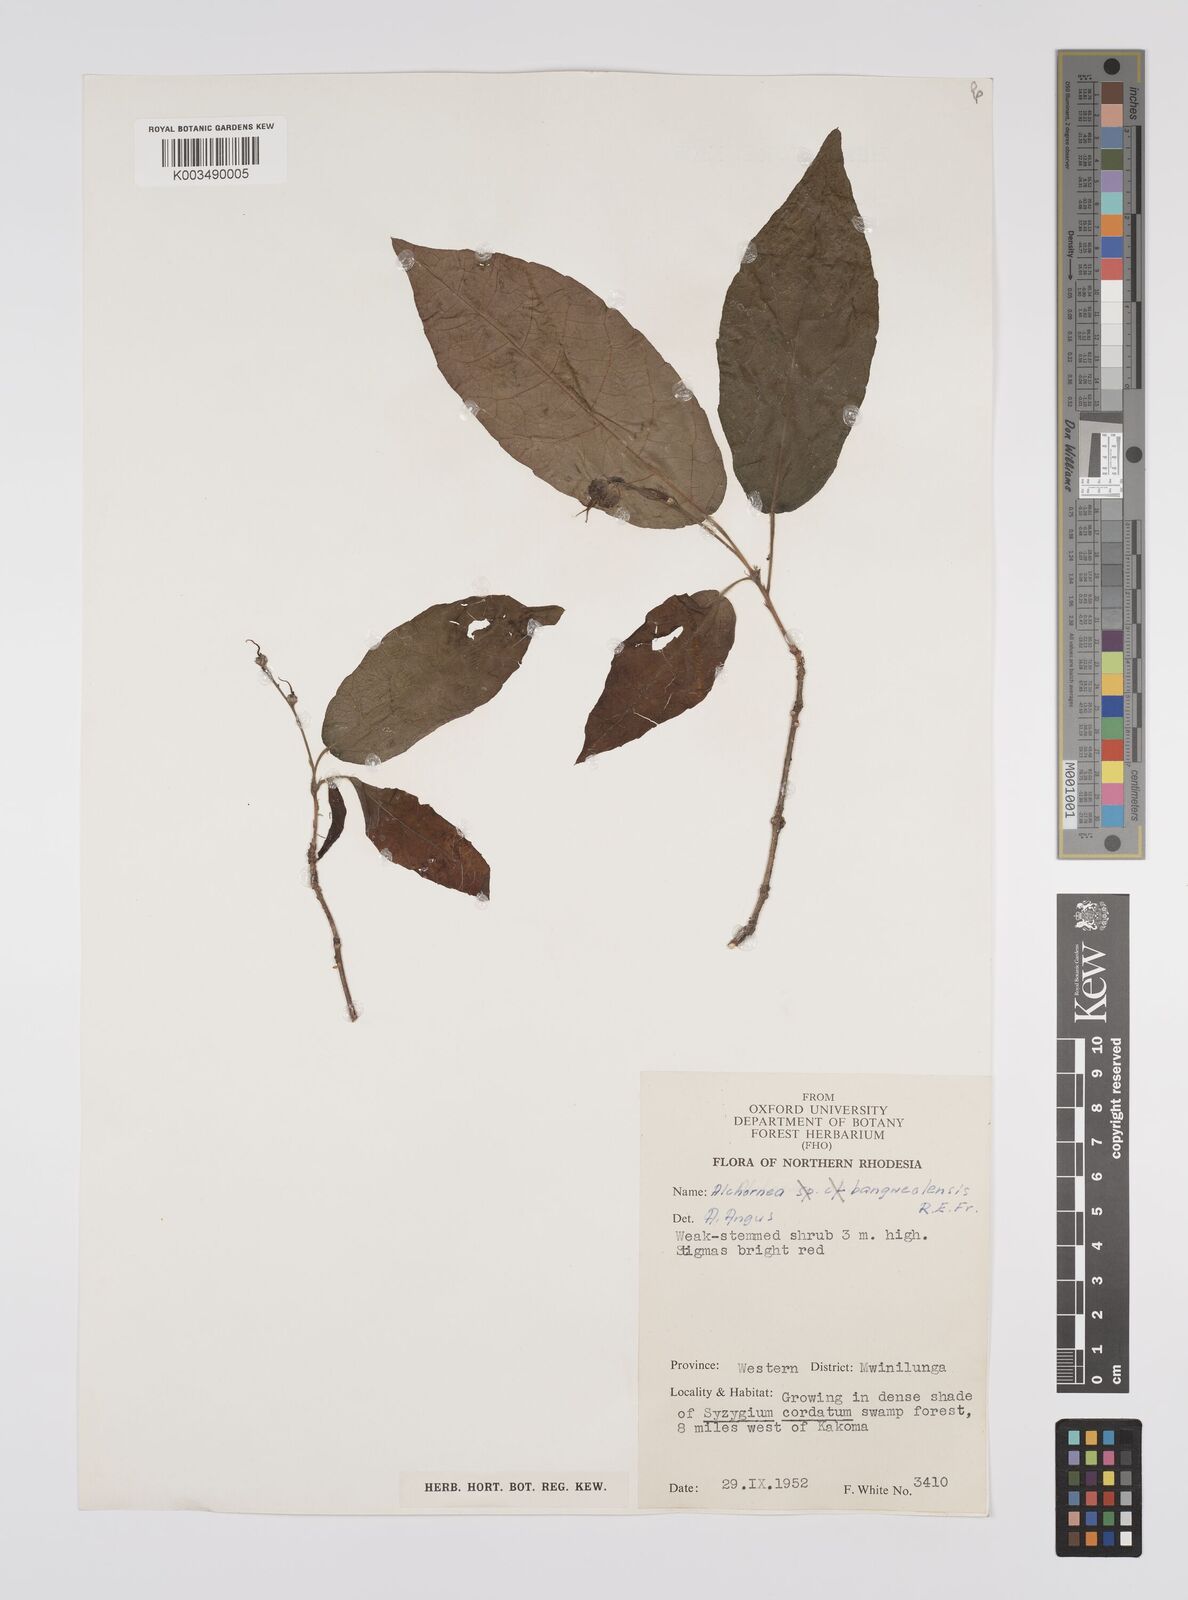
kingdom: Plantae
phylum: Tracheophyta
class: Magnoliopsida
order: Malpighiales
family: Euphorbiaceae
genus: Alchornea
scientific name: Alchornea yambuyaensis
